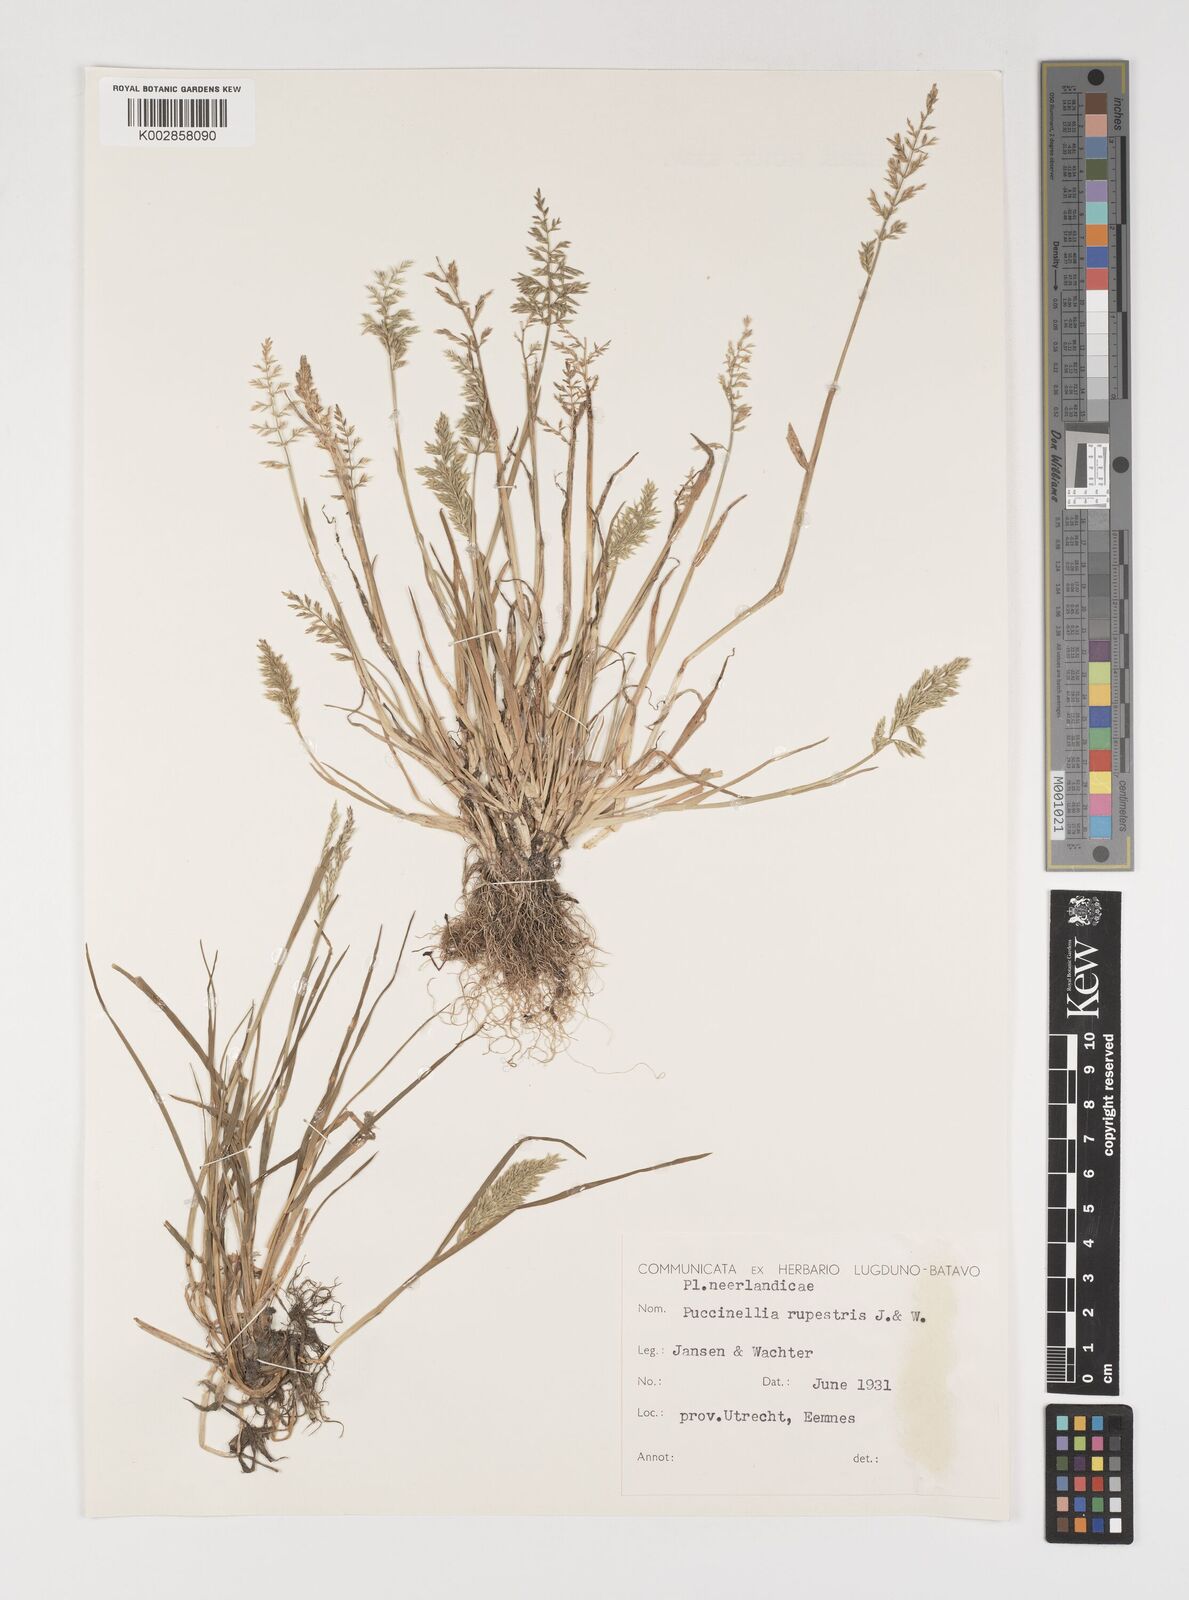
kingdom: Plantae
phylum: Tracheophyta
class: Liliopsida
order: Poales
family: Poaceae
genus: Puccinellia
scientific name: Puccinellia rupestris
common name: Stiff saltmarsh-grass
